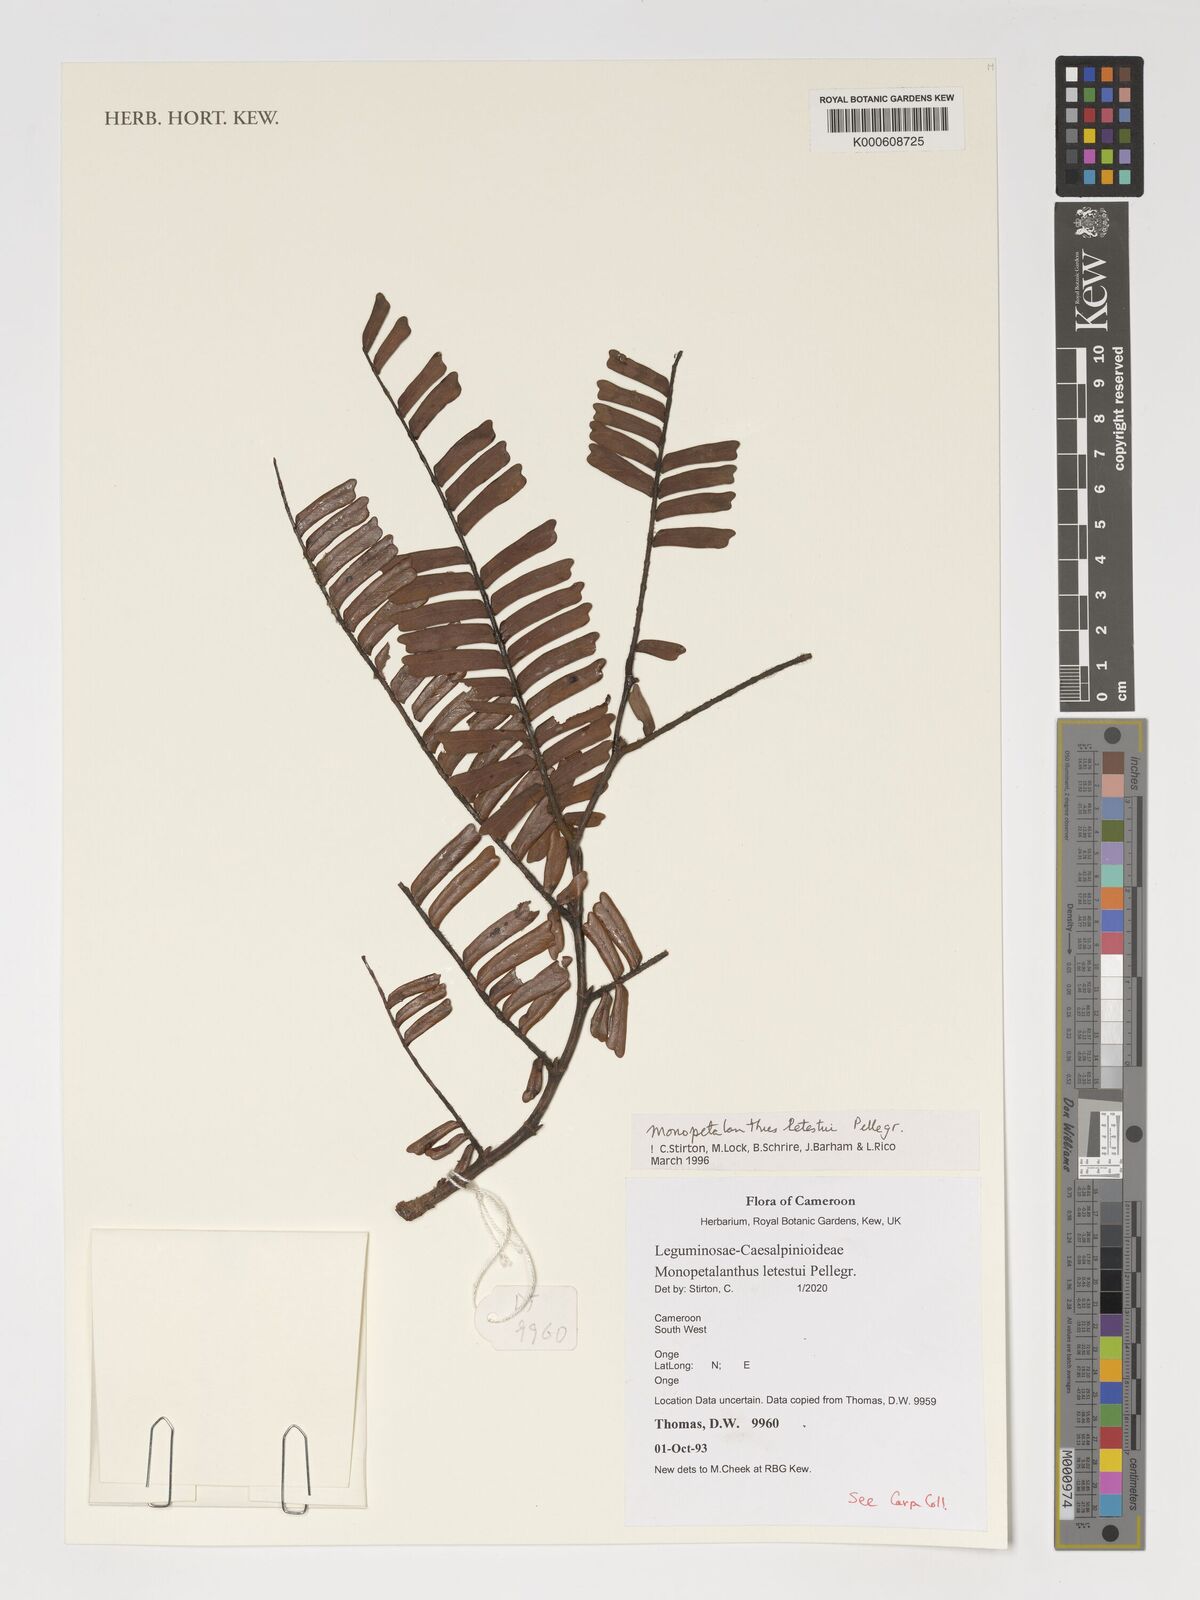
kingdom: Plantae
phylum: Tracheophyta
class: Magnoliopsida
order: Fabales
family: Fabaceae
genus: Bikinia
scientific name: Bikinia letestui
